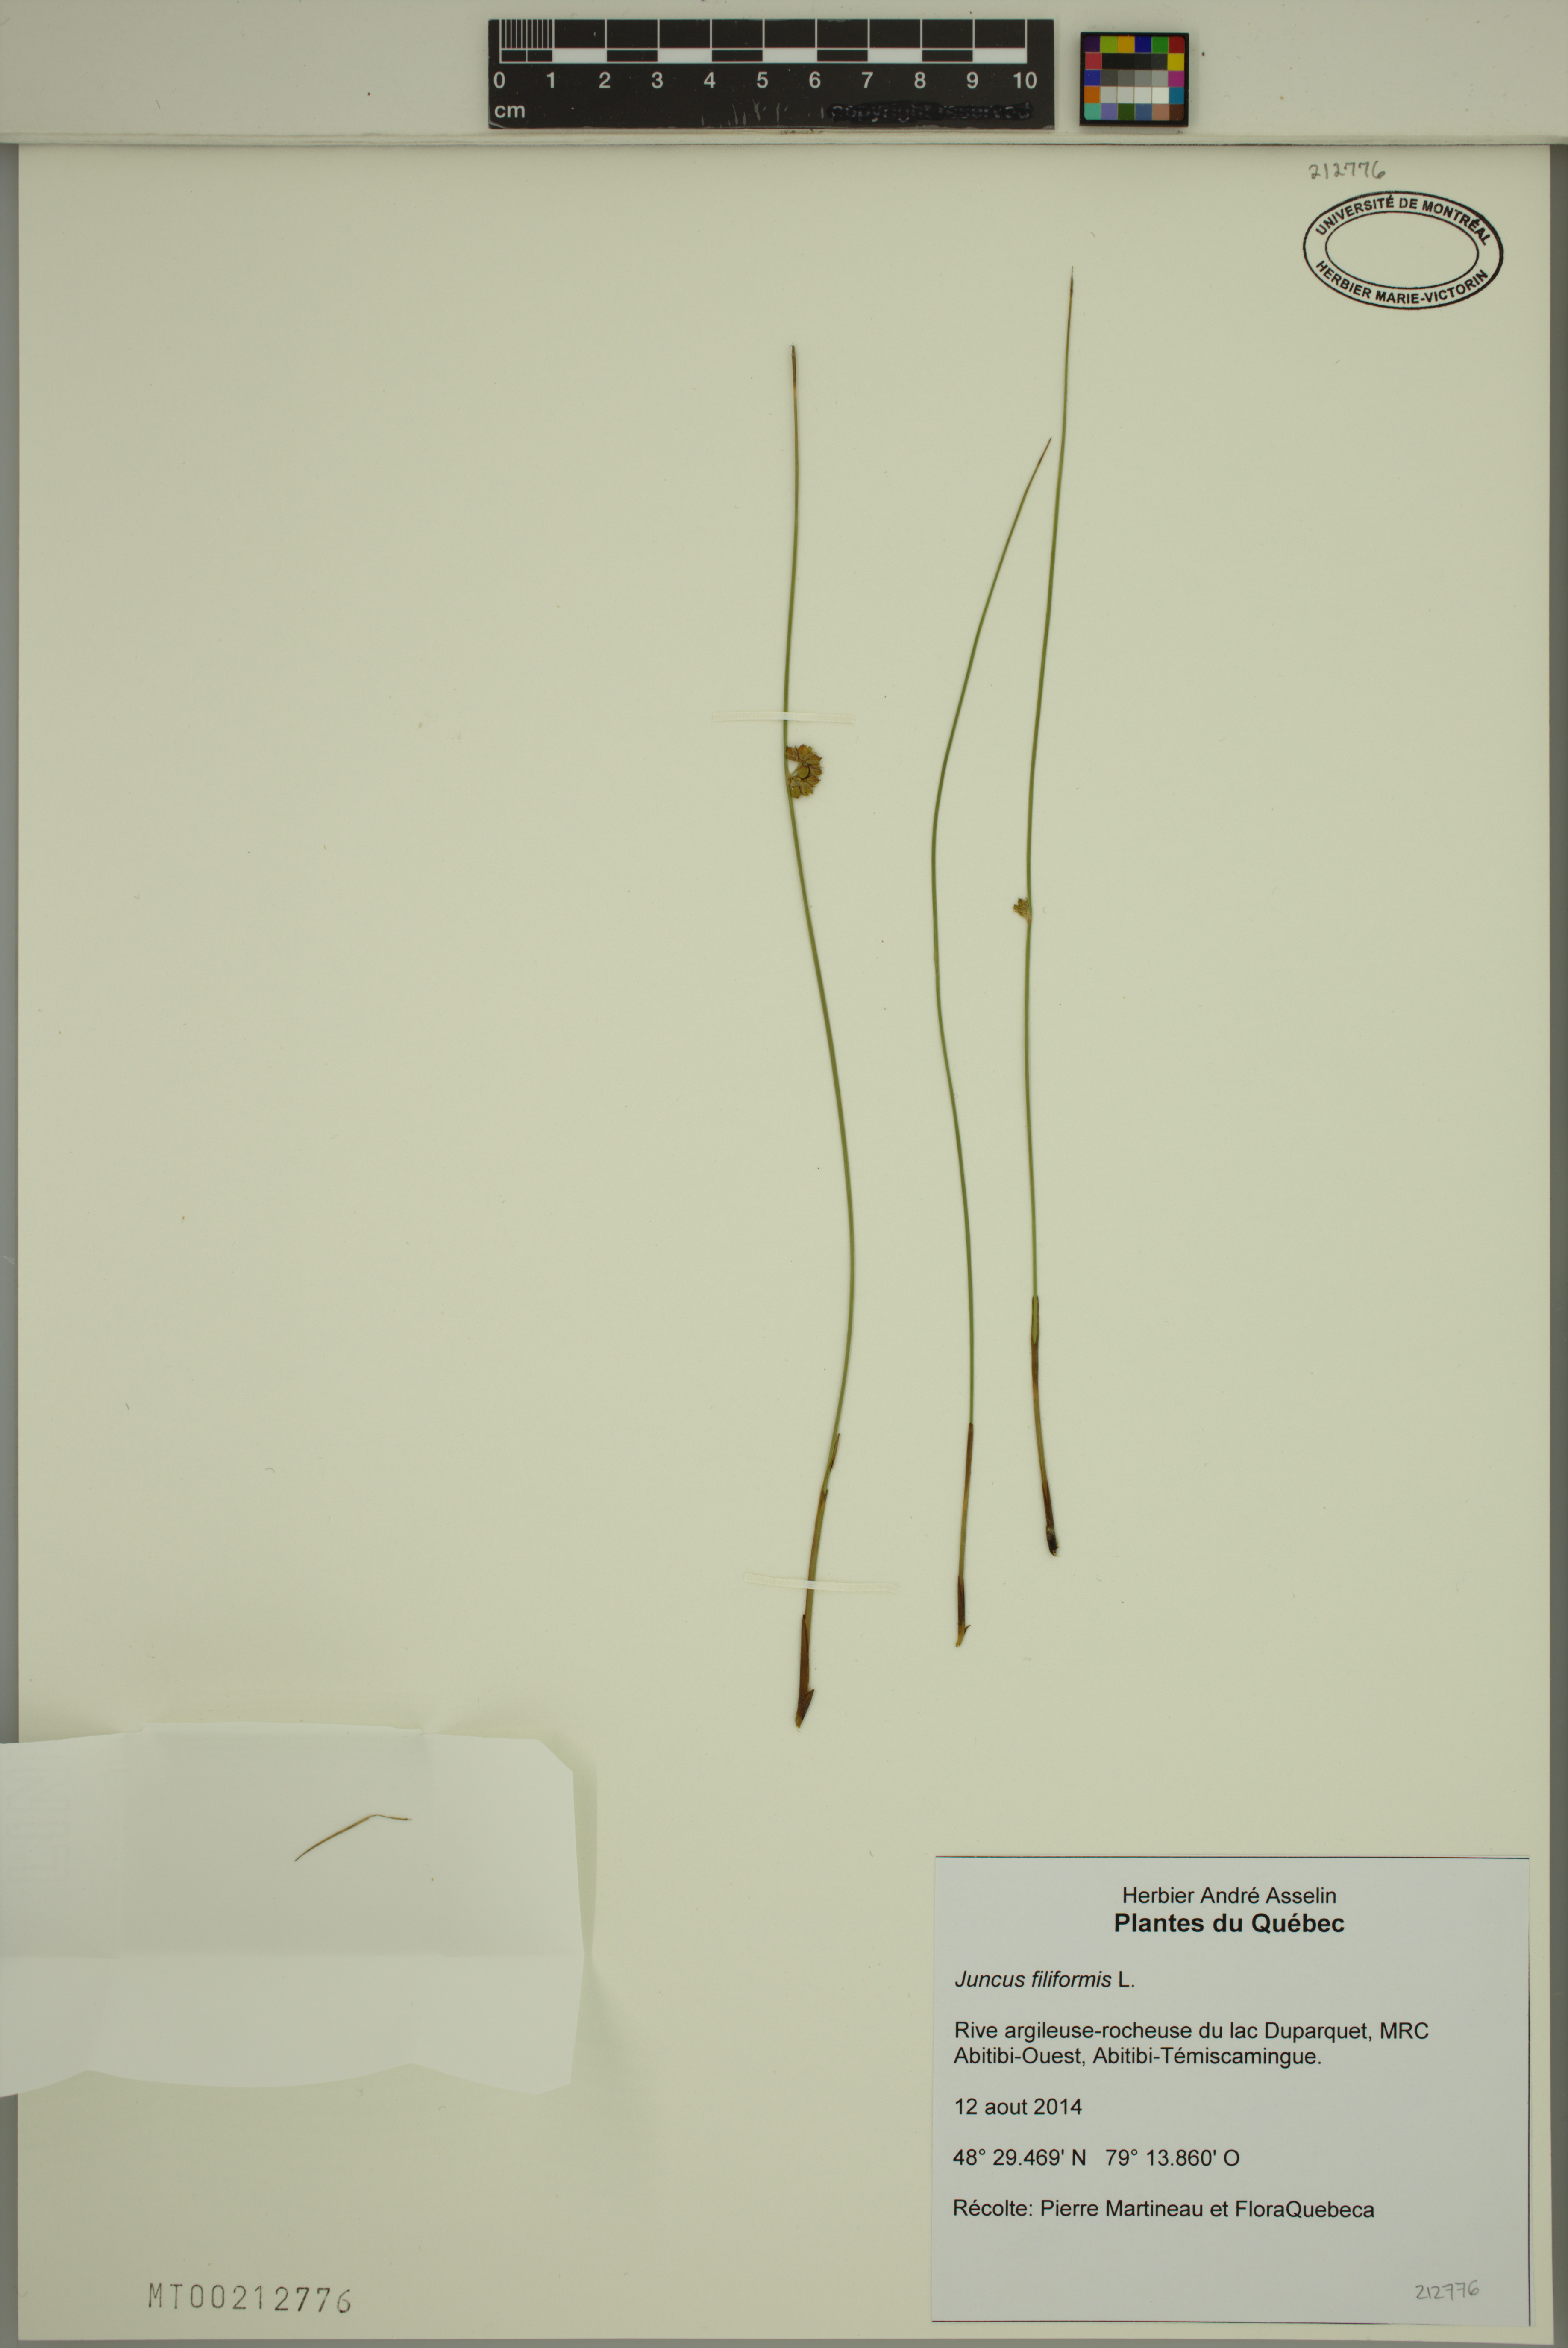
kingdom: Plantae
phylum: Tracheophyta
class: Liliopsida
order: Poales
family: Juncaceae
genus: Juncus
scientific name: Juncus filiformis
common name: Thread rush
